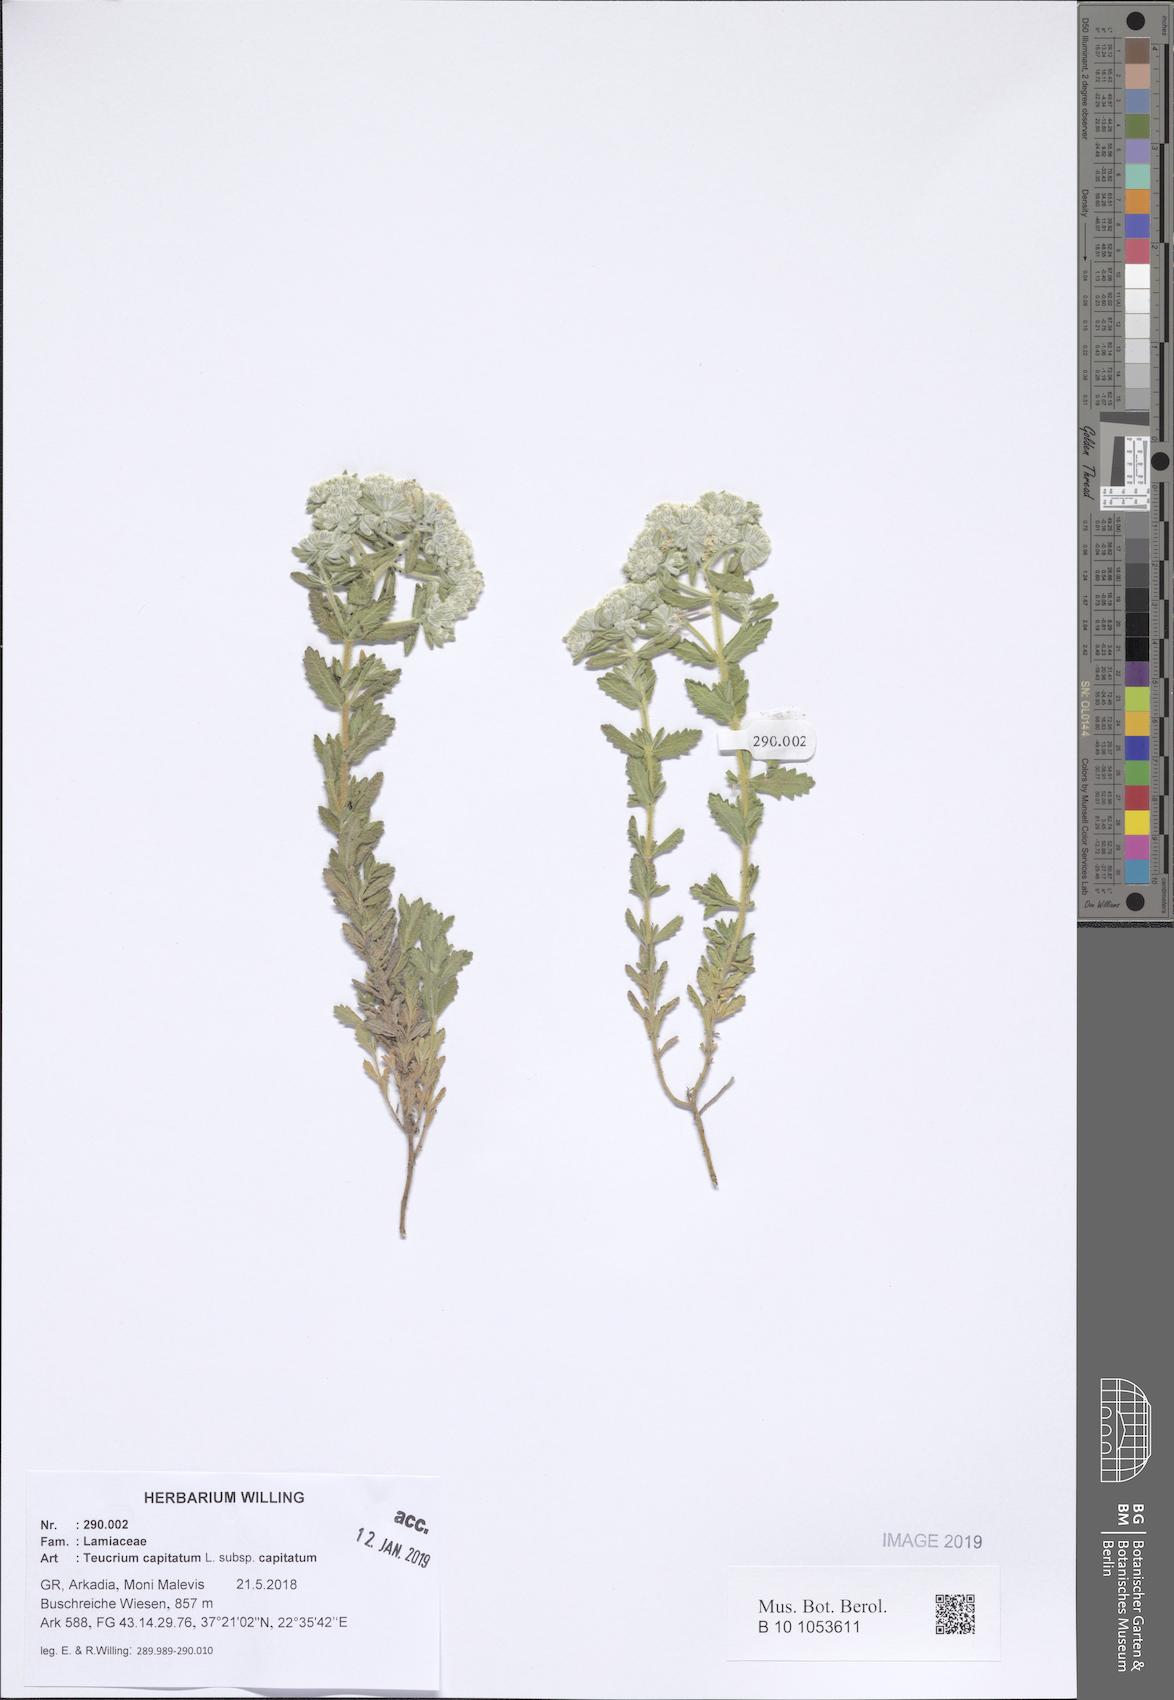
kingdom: Plantae
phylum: Tracheophyta
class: Magnoliopsida
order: Lamiales
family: Lamiaceae
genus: Teucrium
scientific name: Teucrium capitatum
